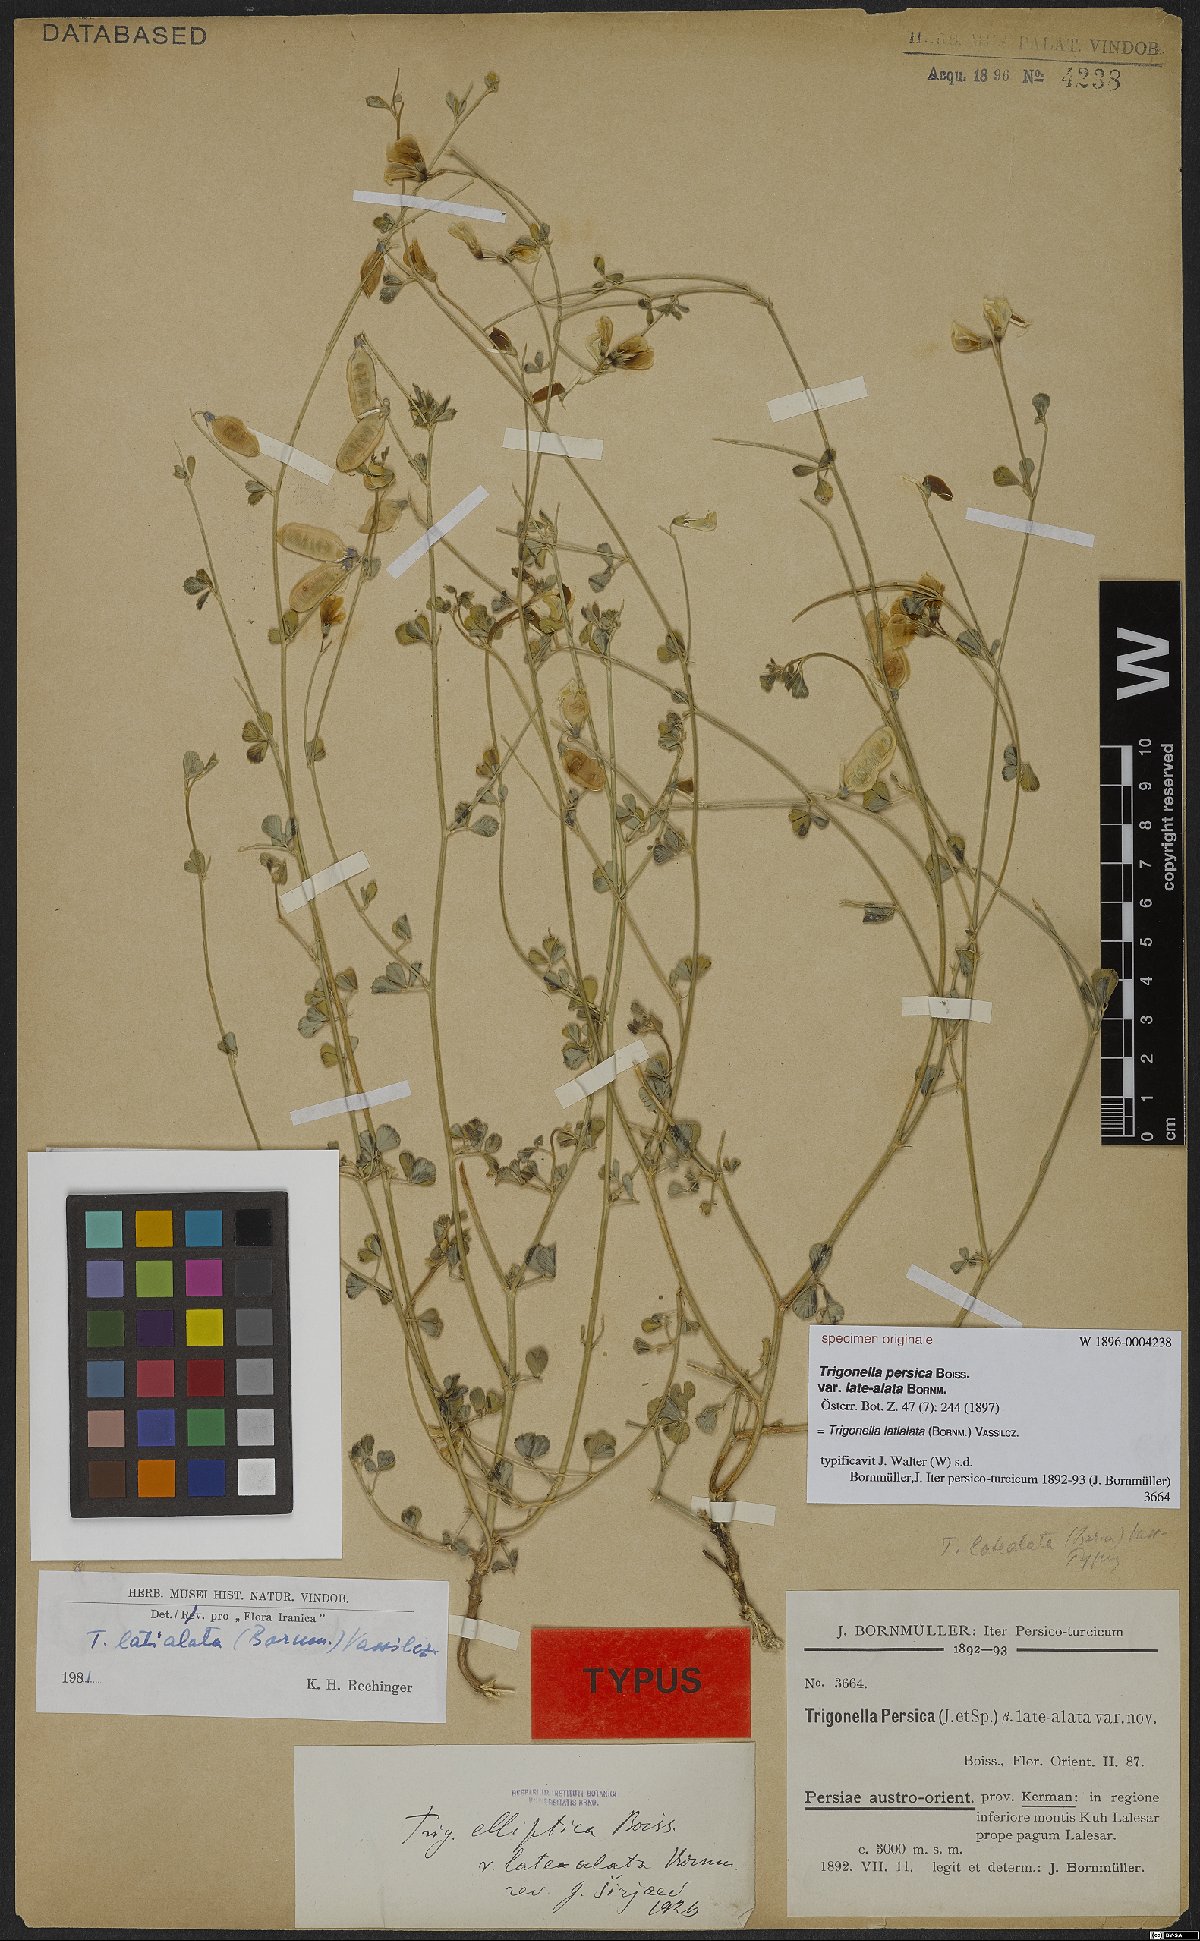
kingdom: Plantae
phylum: Tracheophyta
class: Magnoliopsida
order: Fabales
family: Fabaceae
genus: Trigonella
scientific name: Trigonella latialata
